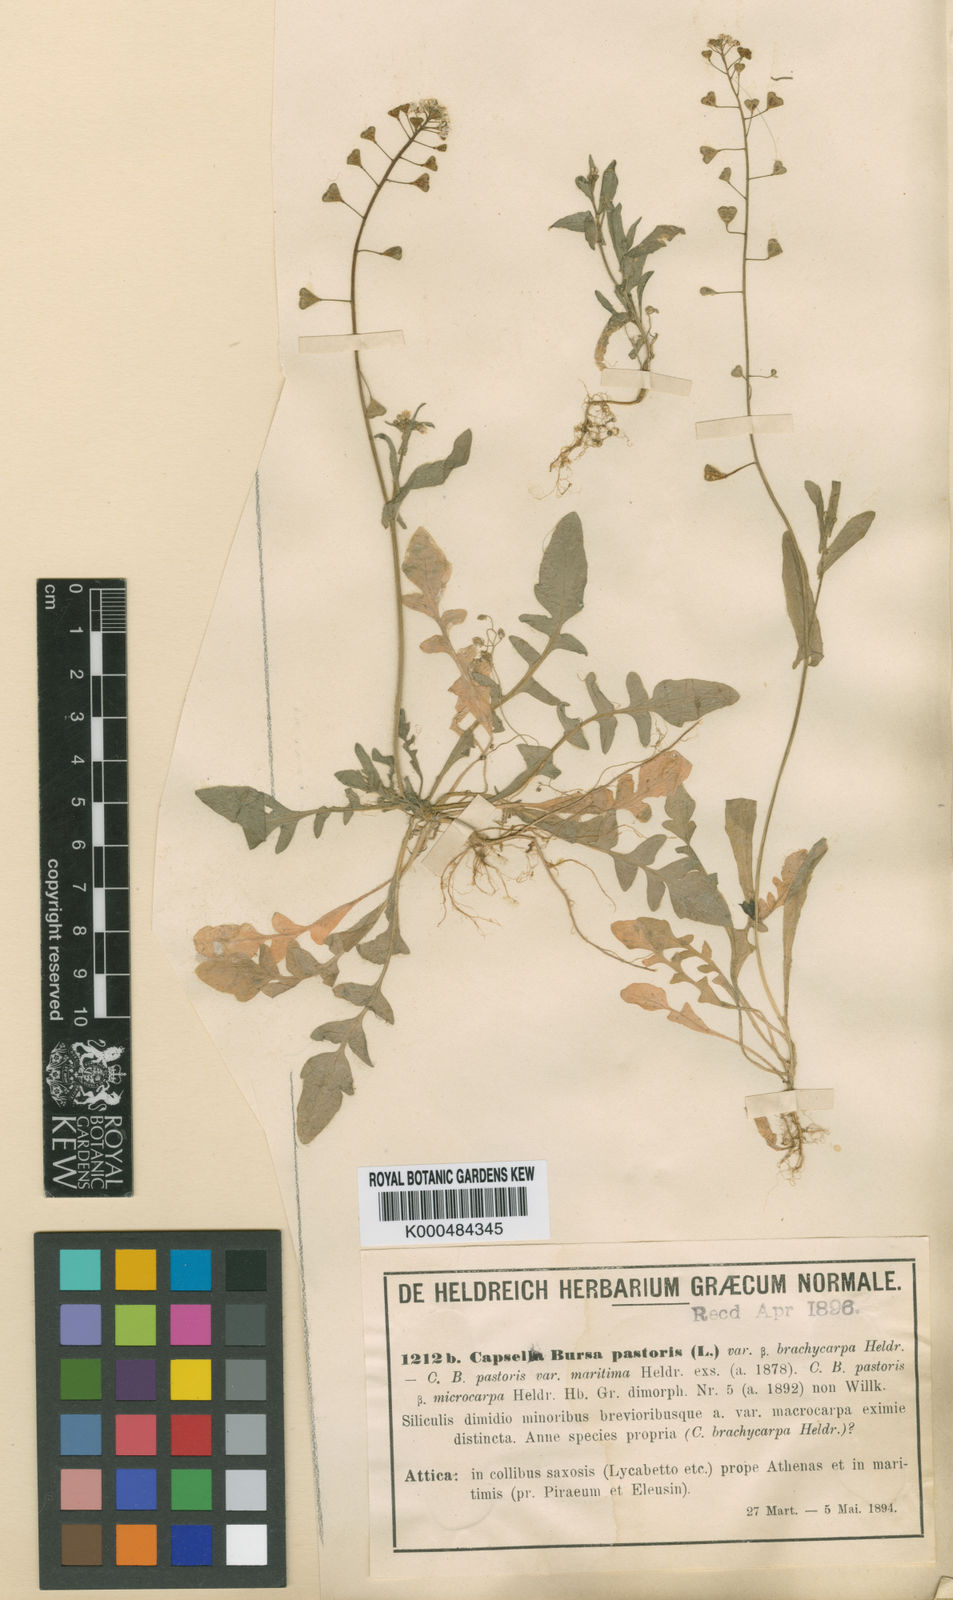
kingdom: Plantae
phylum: Tracheophyta
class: Magnoliopsida
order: Brassicales
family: Brassicaceae
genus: Capsella
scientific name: Capsella bursa-pastoris
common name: Shepherd's purse
